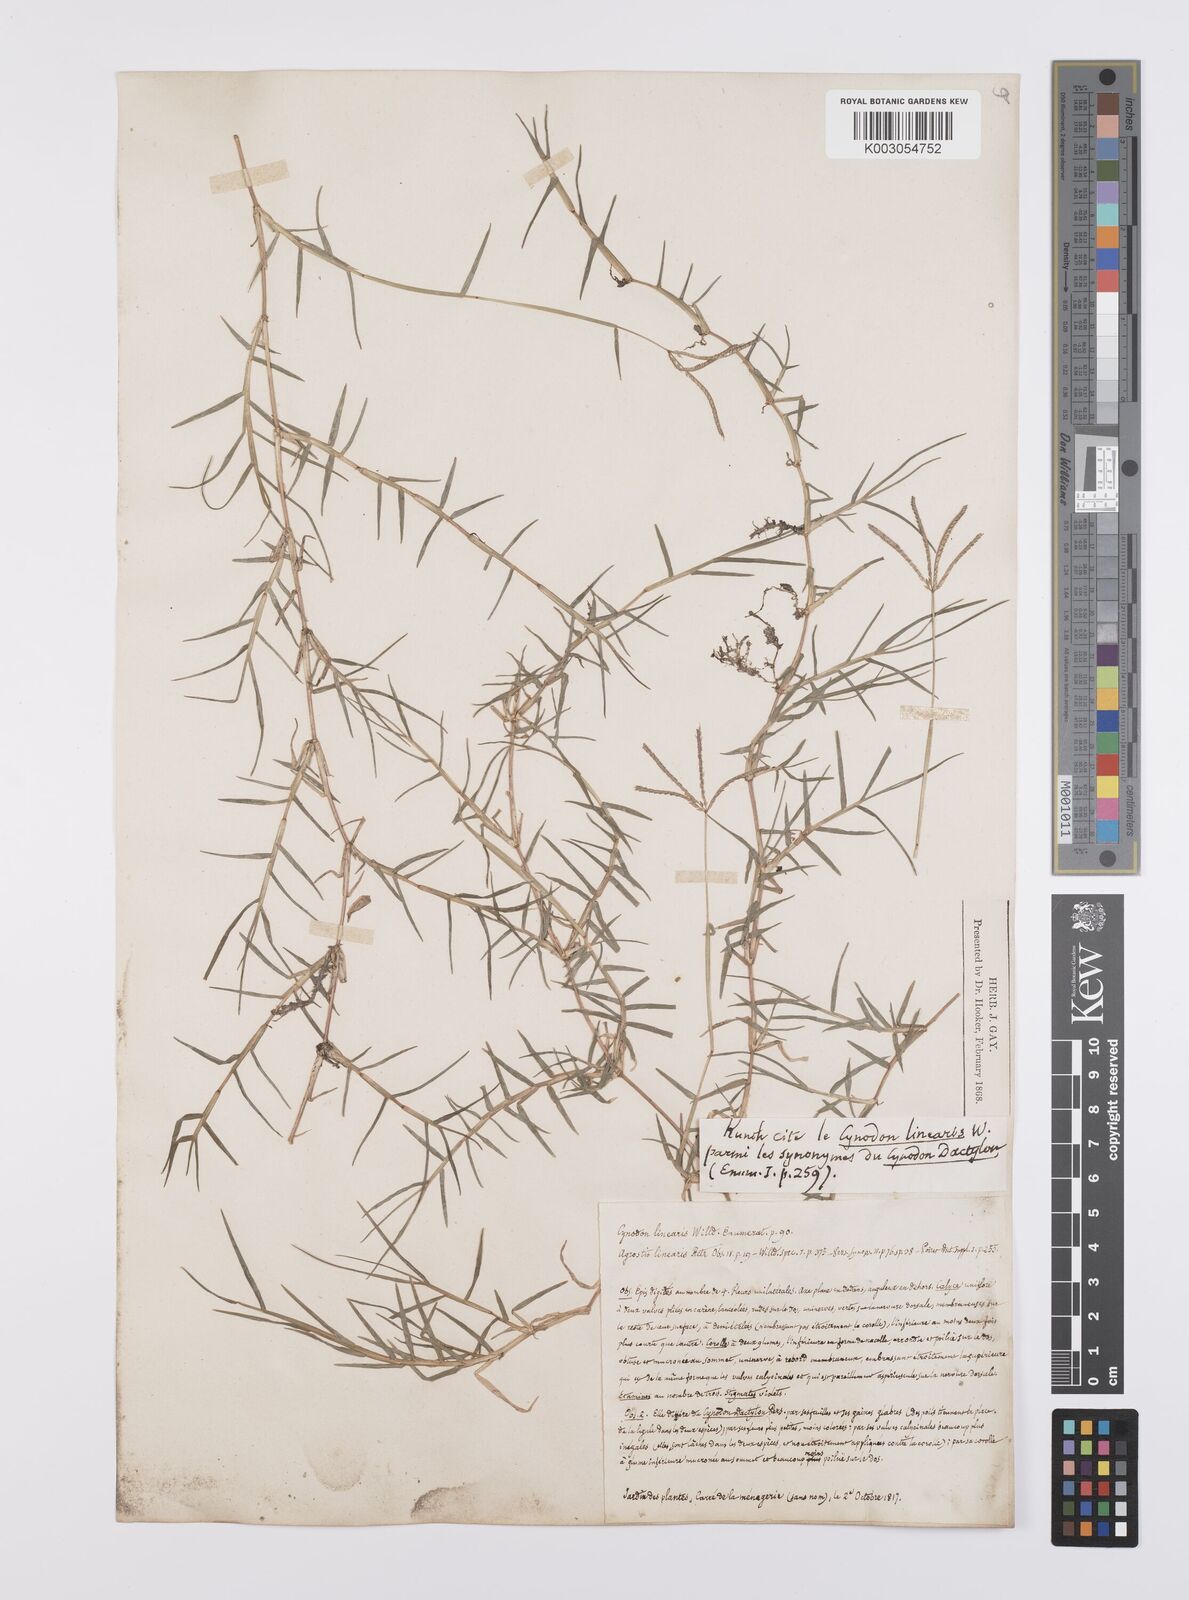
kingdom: Plantae
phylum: Tracheophyta
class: Liliopsida
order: Poales
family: Poaceae
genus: Cynodon
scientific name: Cynodon dactylon
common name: Bermuda grass
